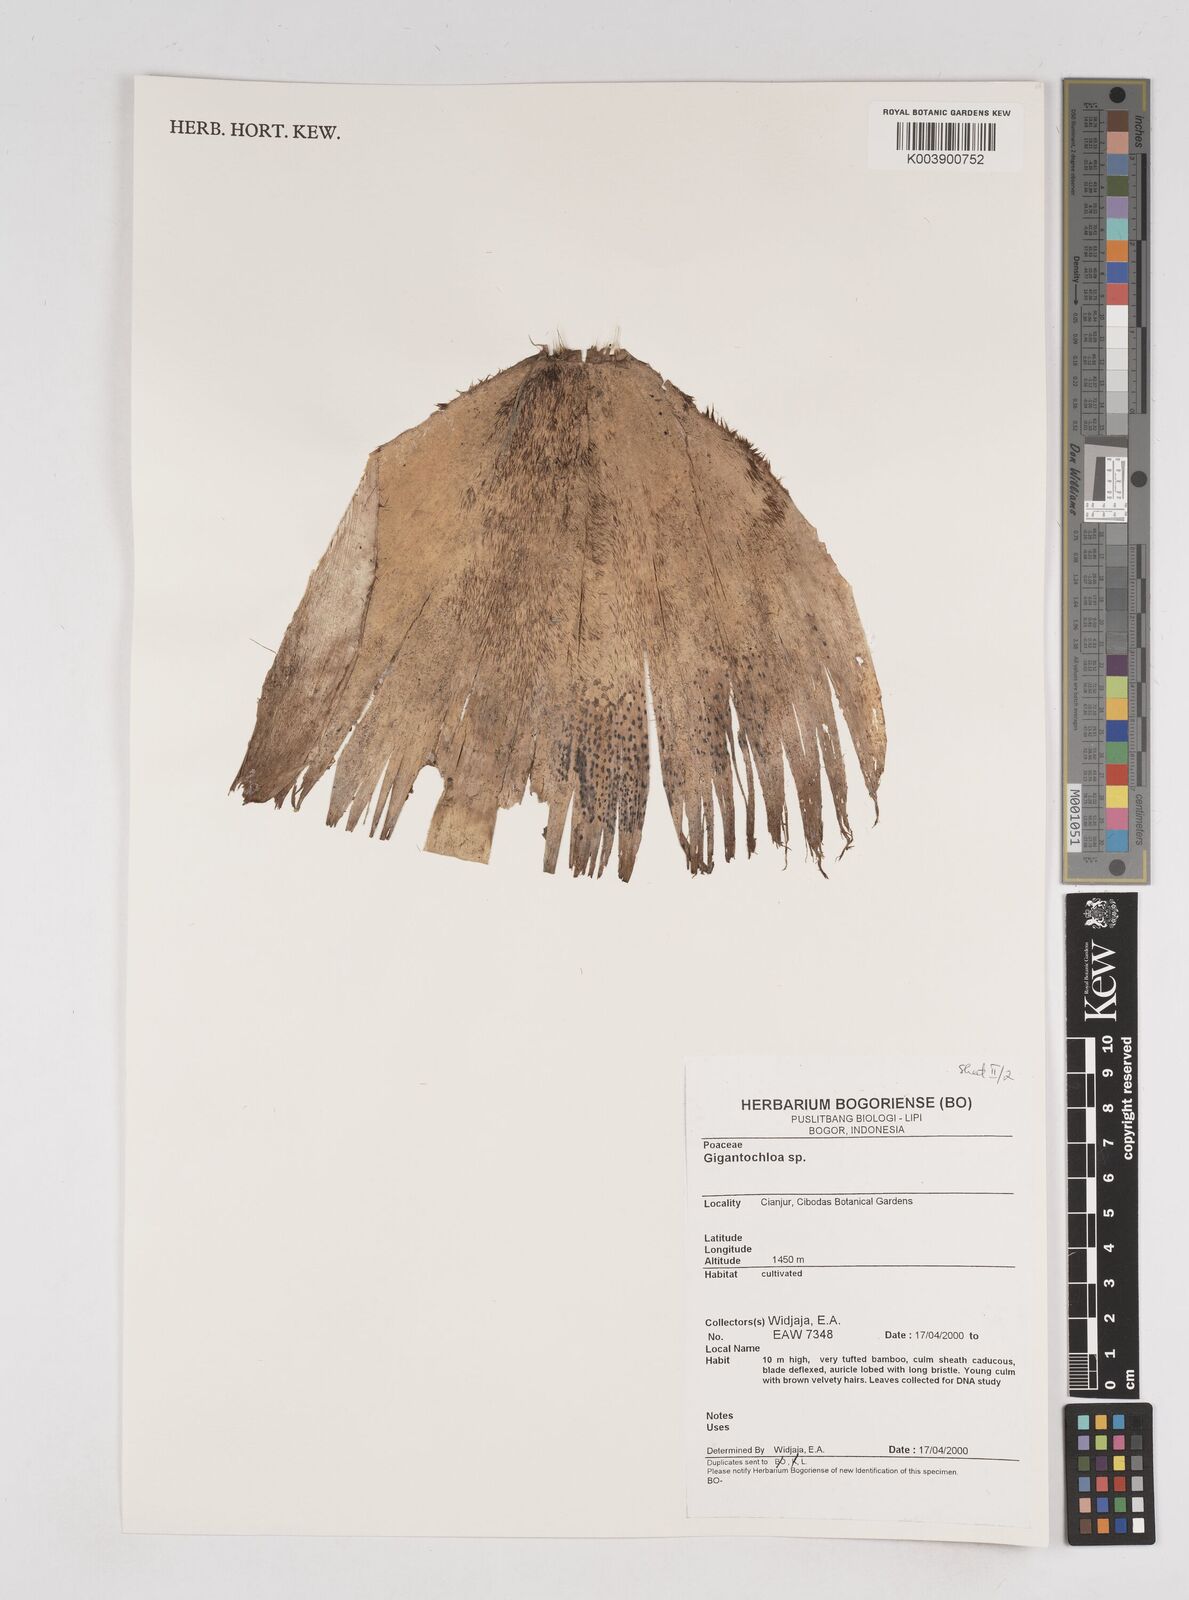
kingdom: Plantae
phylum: Tracheophyta
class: Liliopsida
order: Poales
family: Poaceae
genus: Gigantochloa
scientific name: Gigantochloa
